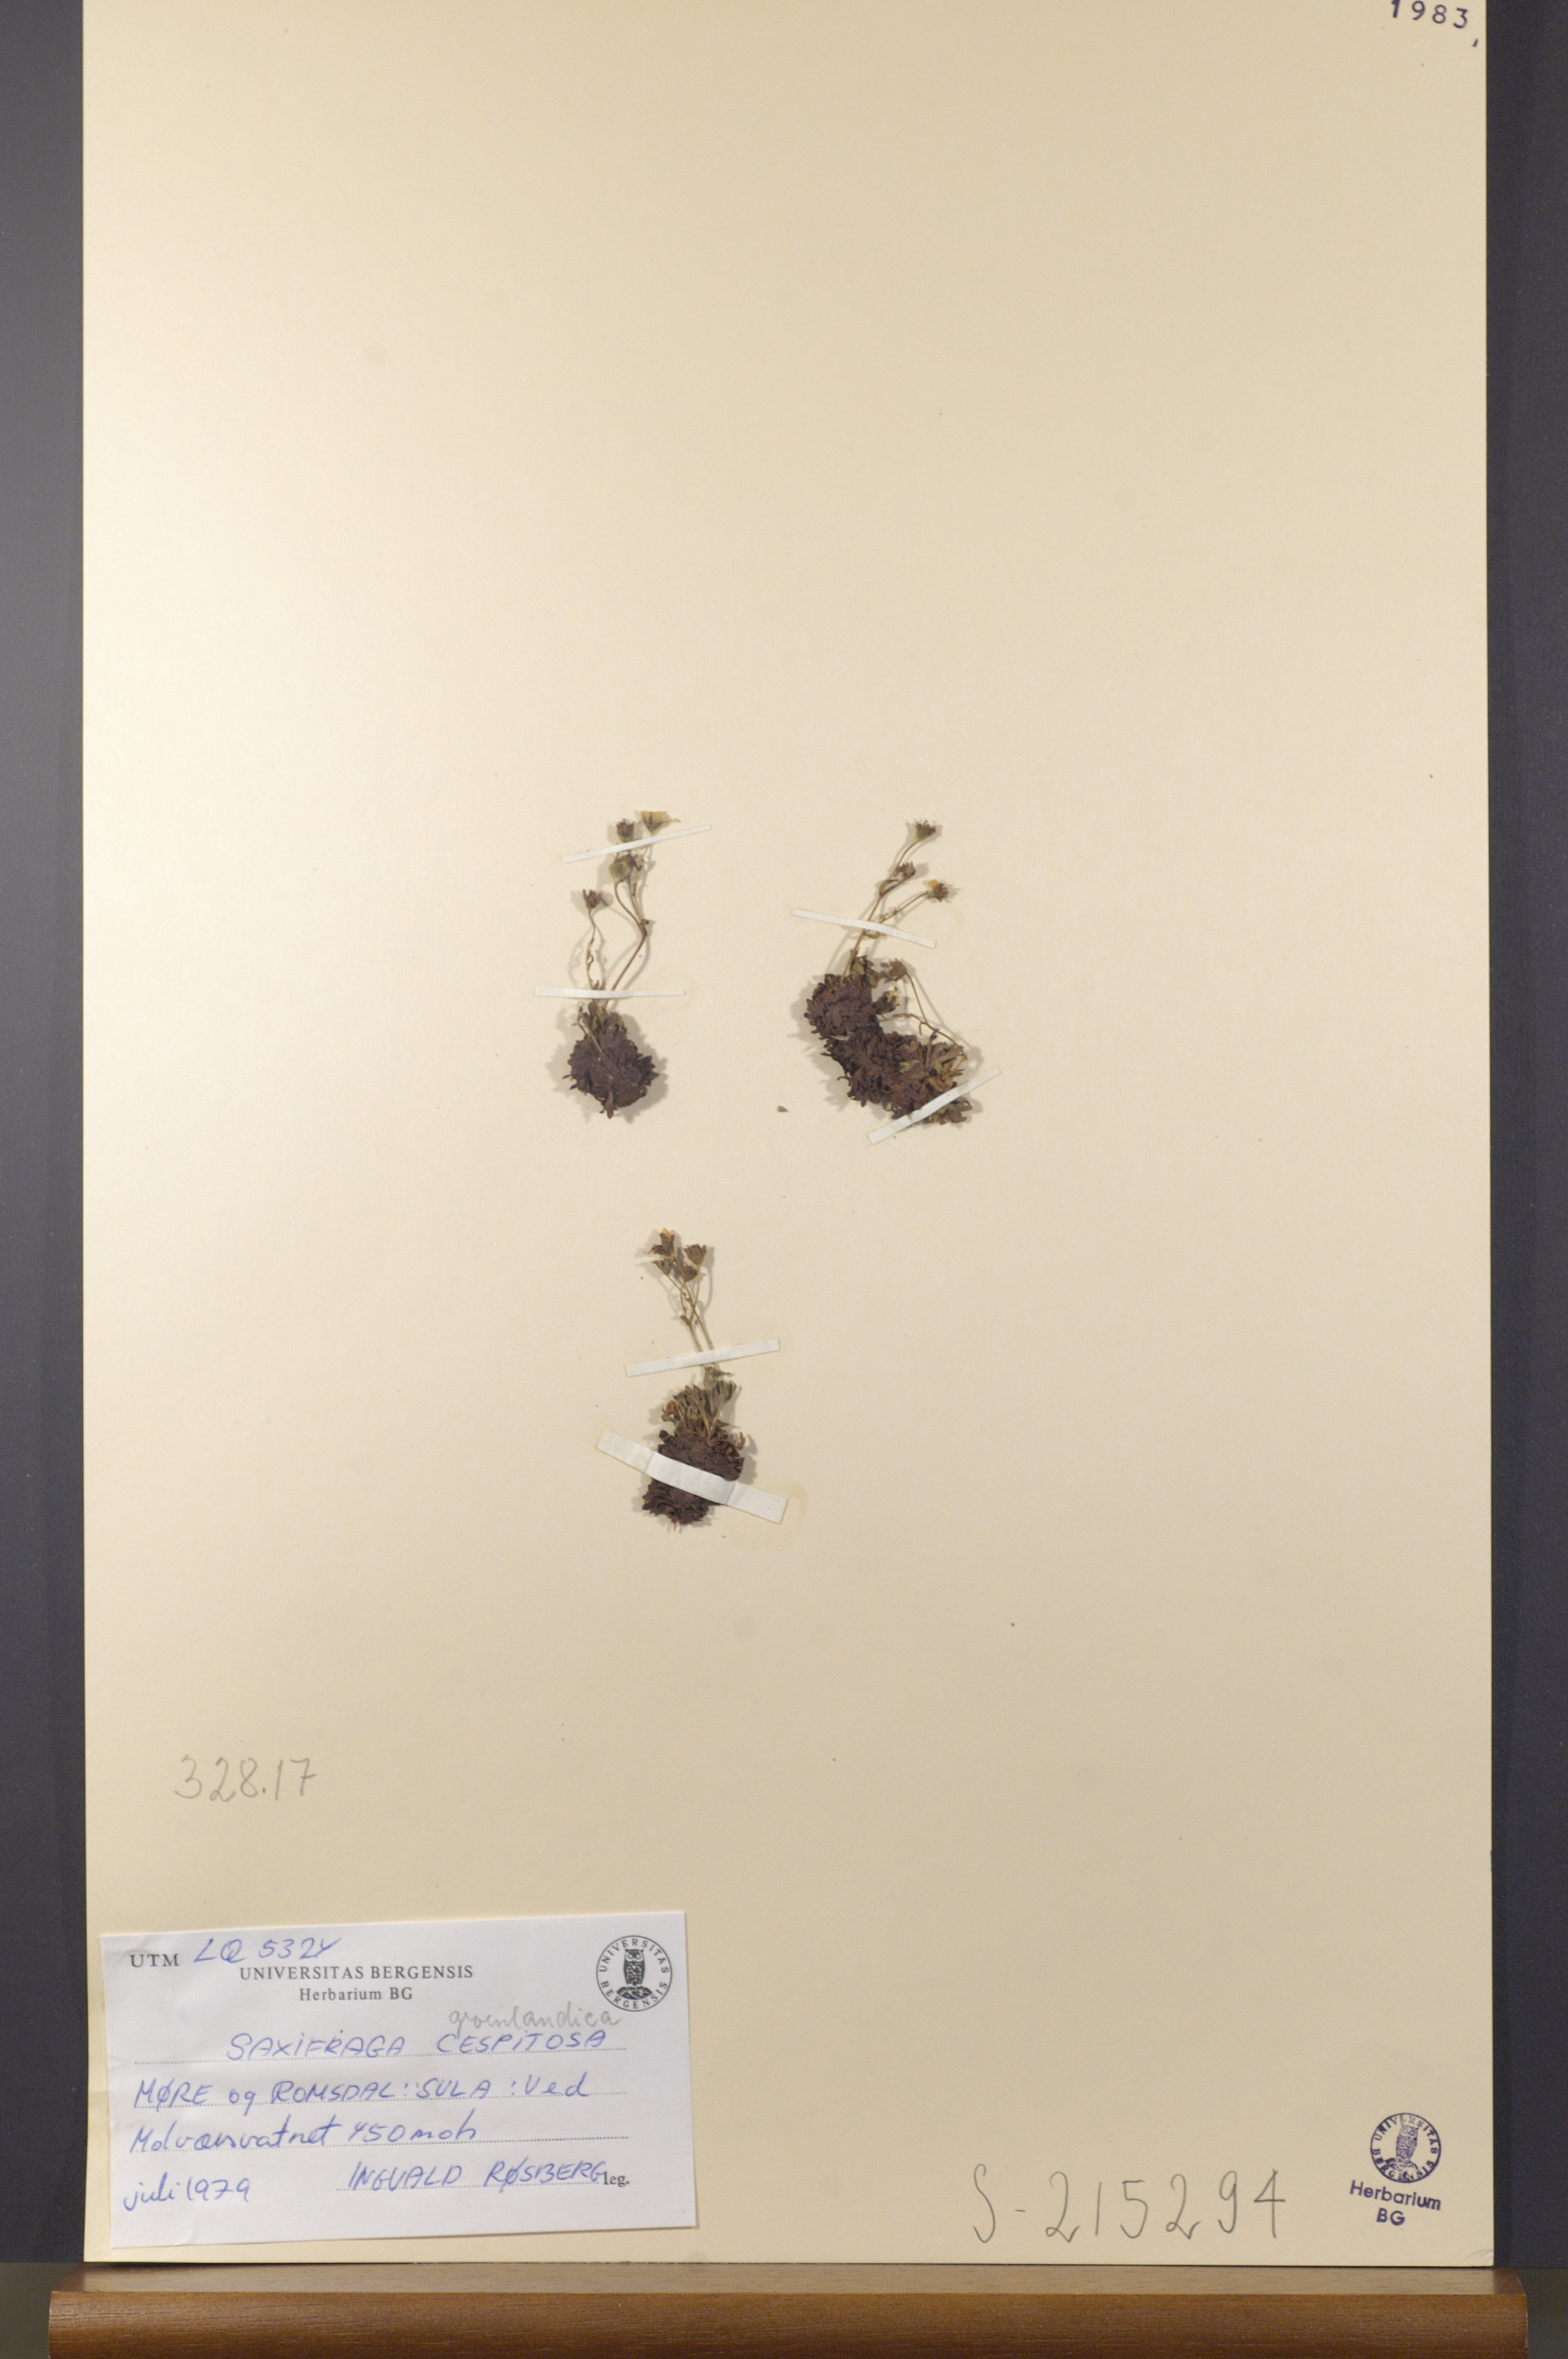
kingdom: Plantae
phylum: Tracheophyta
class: Magnoliopsida
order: Saxifragales
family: Saxifragaceae
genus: Saxifraga
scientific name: Saxifraga cespitosa
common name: Tufted saxifrage
